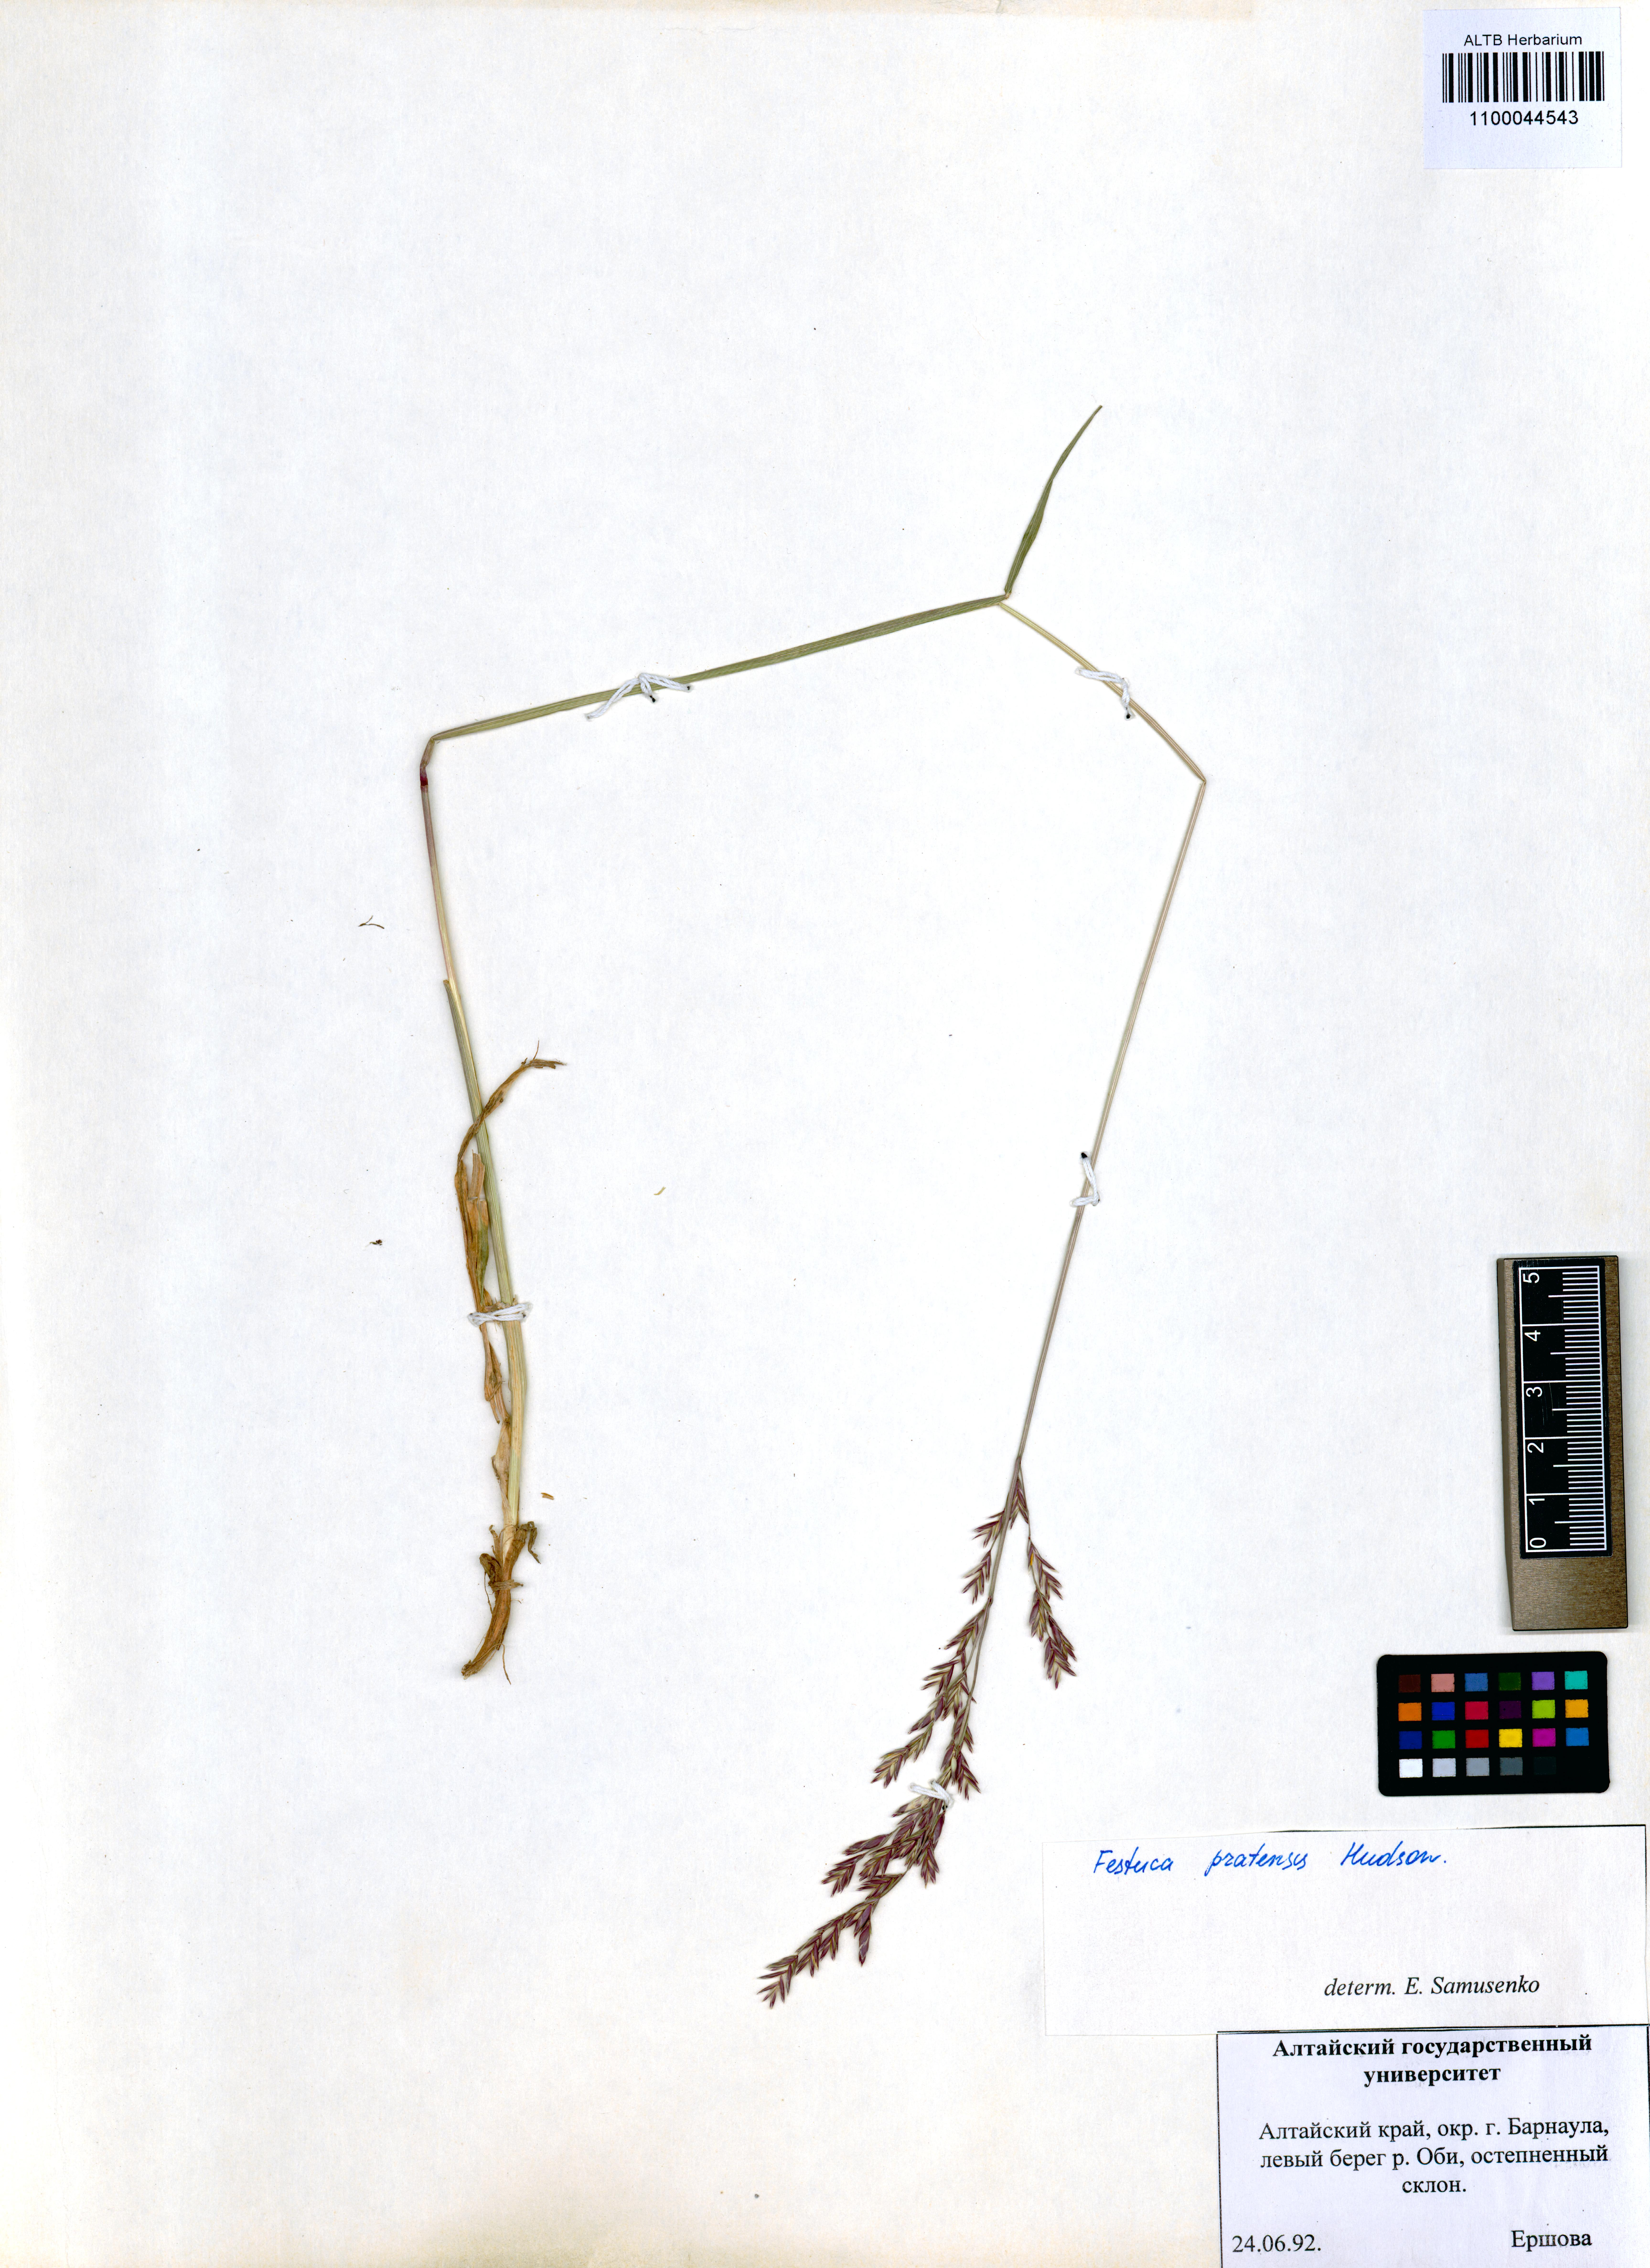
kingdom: Plantae
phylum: Tracheophyta
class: Liliopsida
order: Poales
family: Poaceae
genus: Lolium
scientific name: Lolium pratense
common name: Dover grass
